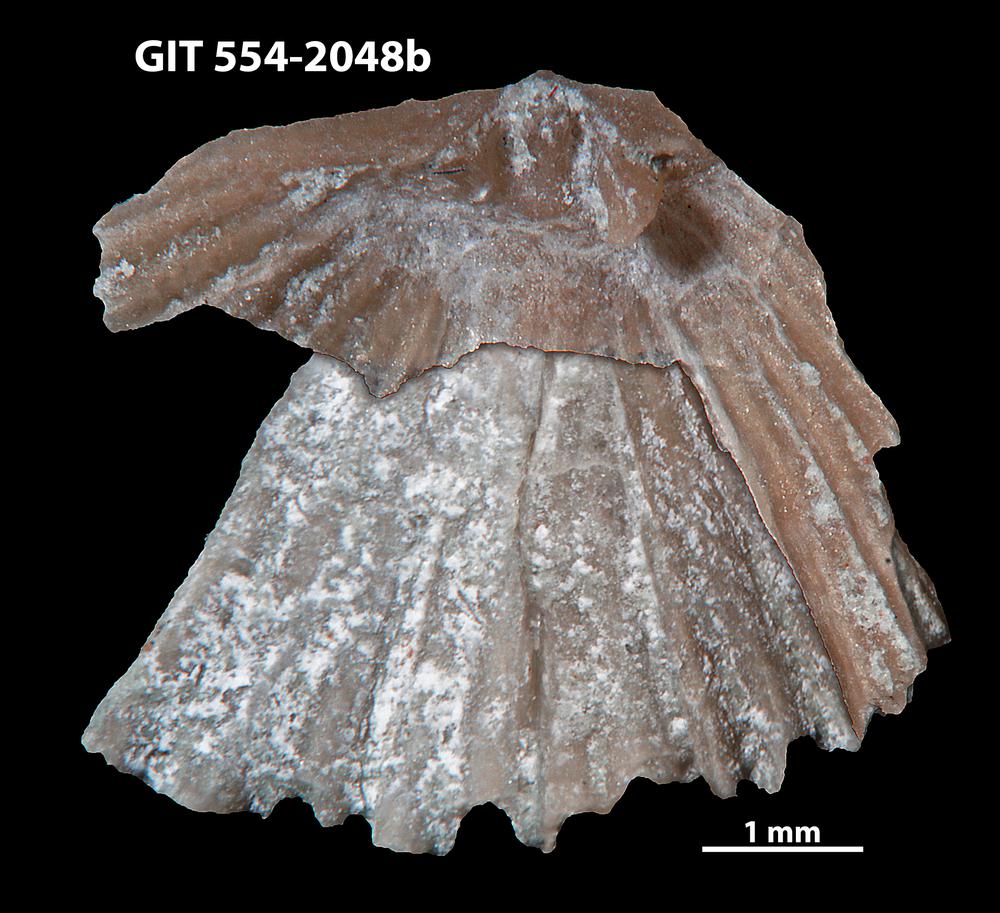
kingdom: Animalia
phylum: Brachiopoda
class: Rhynchonellata
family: Wangyuiidae
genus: Wangyuia
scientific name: Wangyuia
